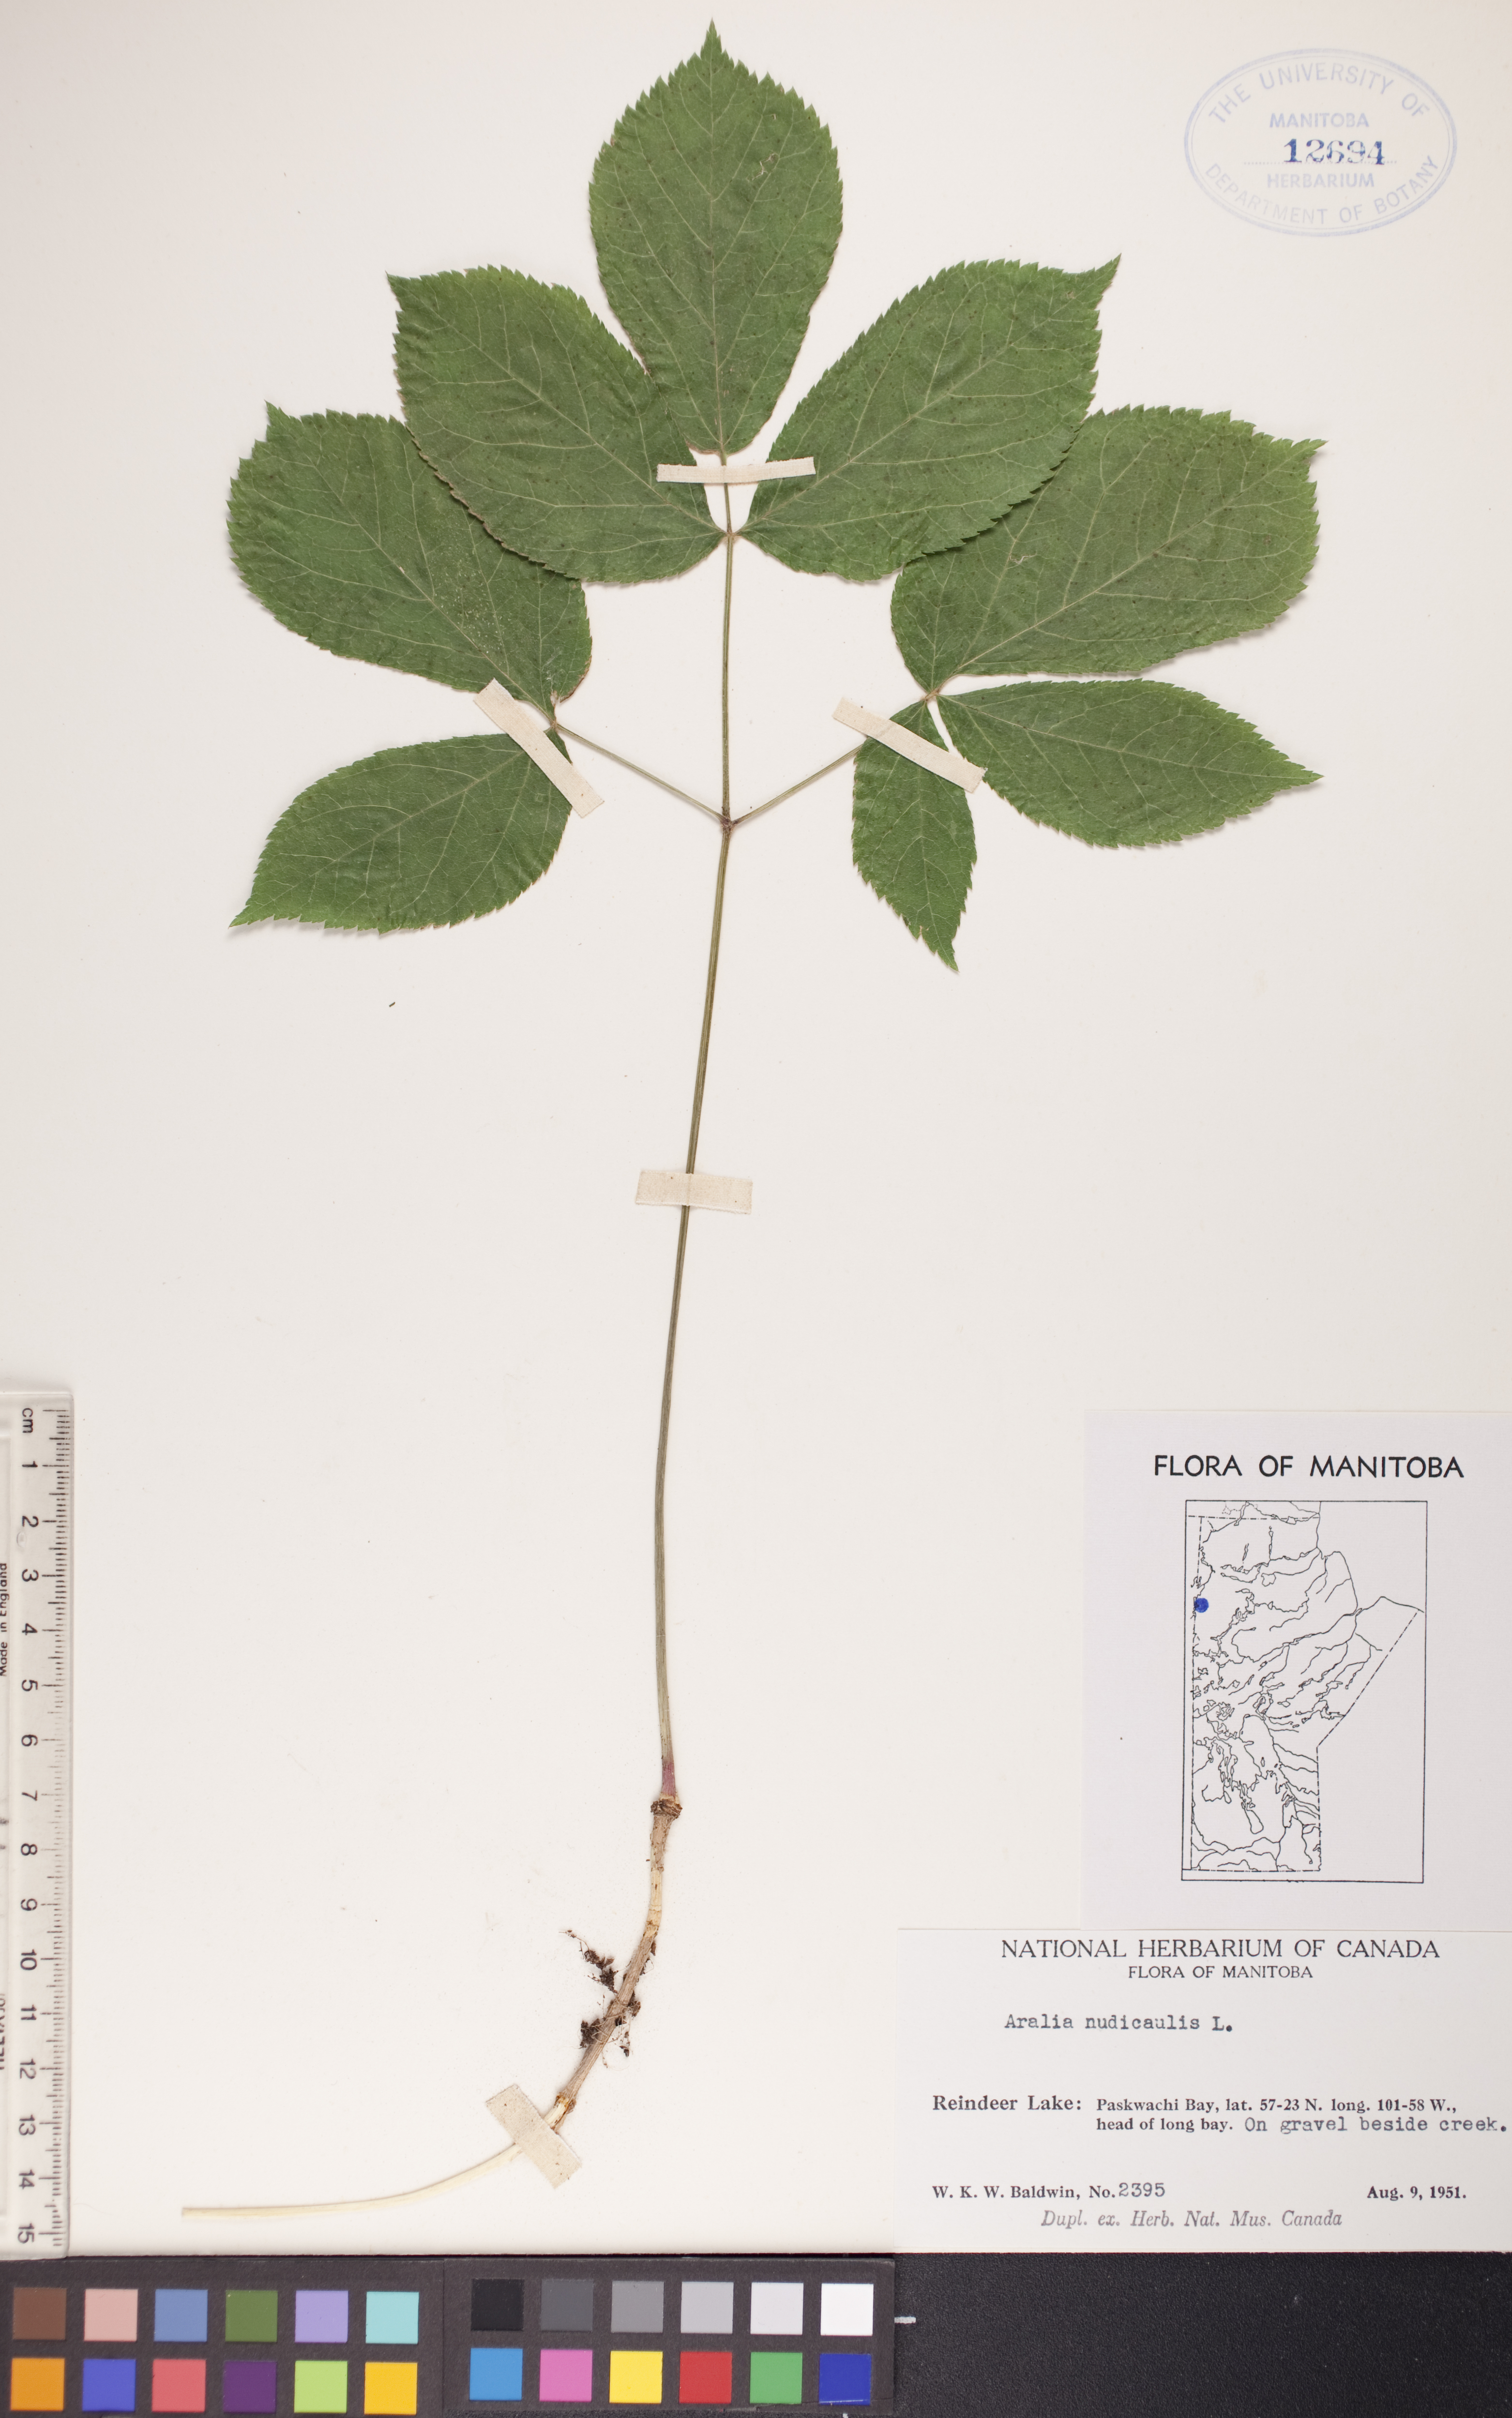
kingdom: Plantae
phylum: Tracheophyta
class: Magnoliopsida
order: Apiales
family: Araliaceae
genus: Aralia
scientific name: Aralia nudicaulis
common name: Wild sarsaparilla
